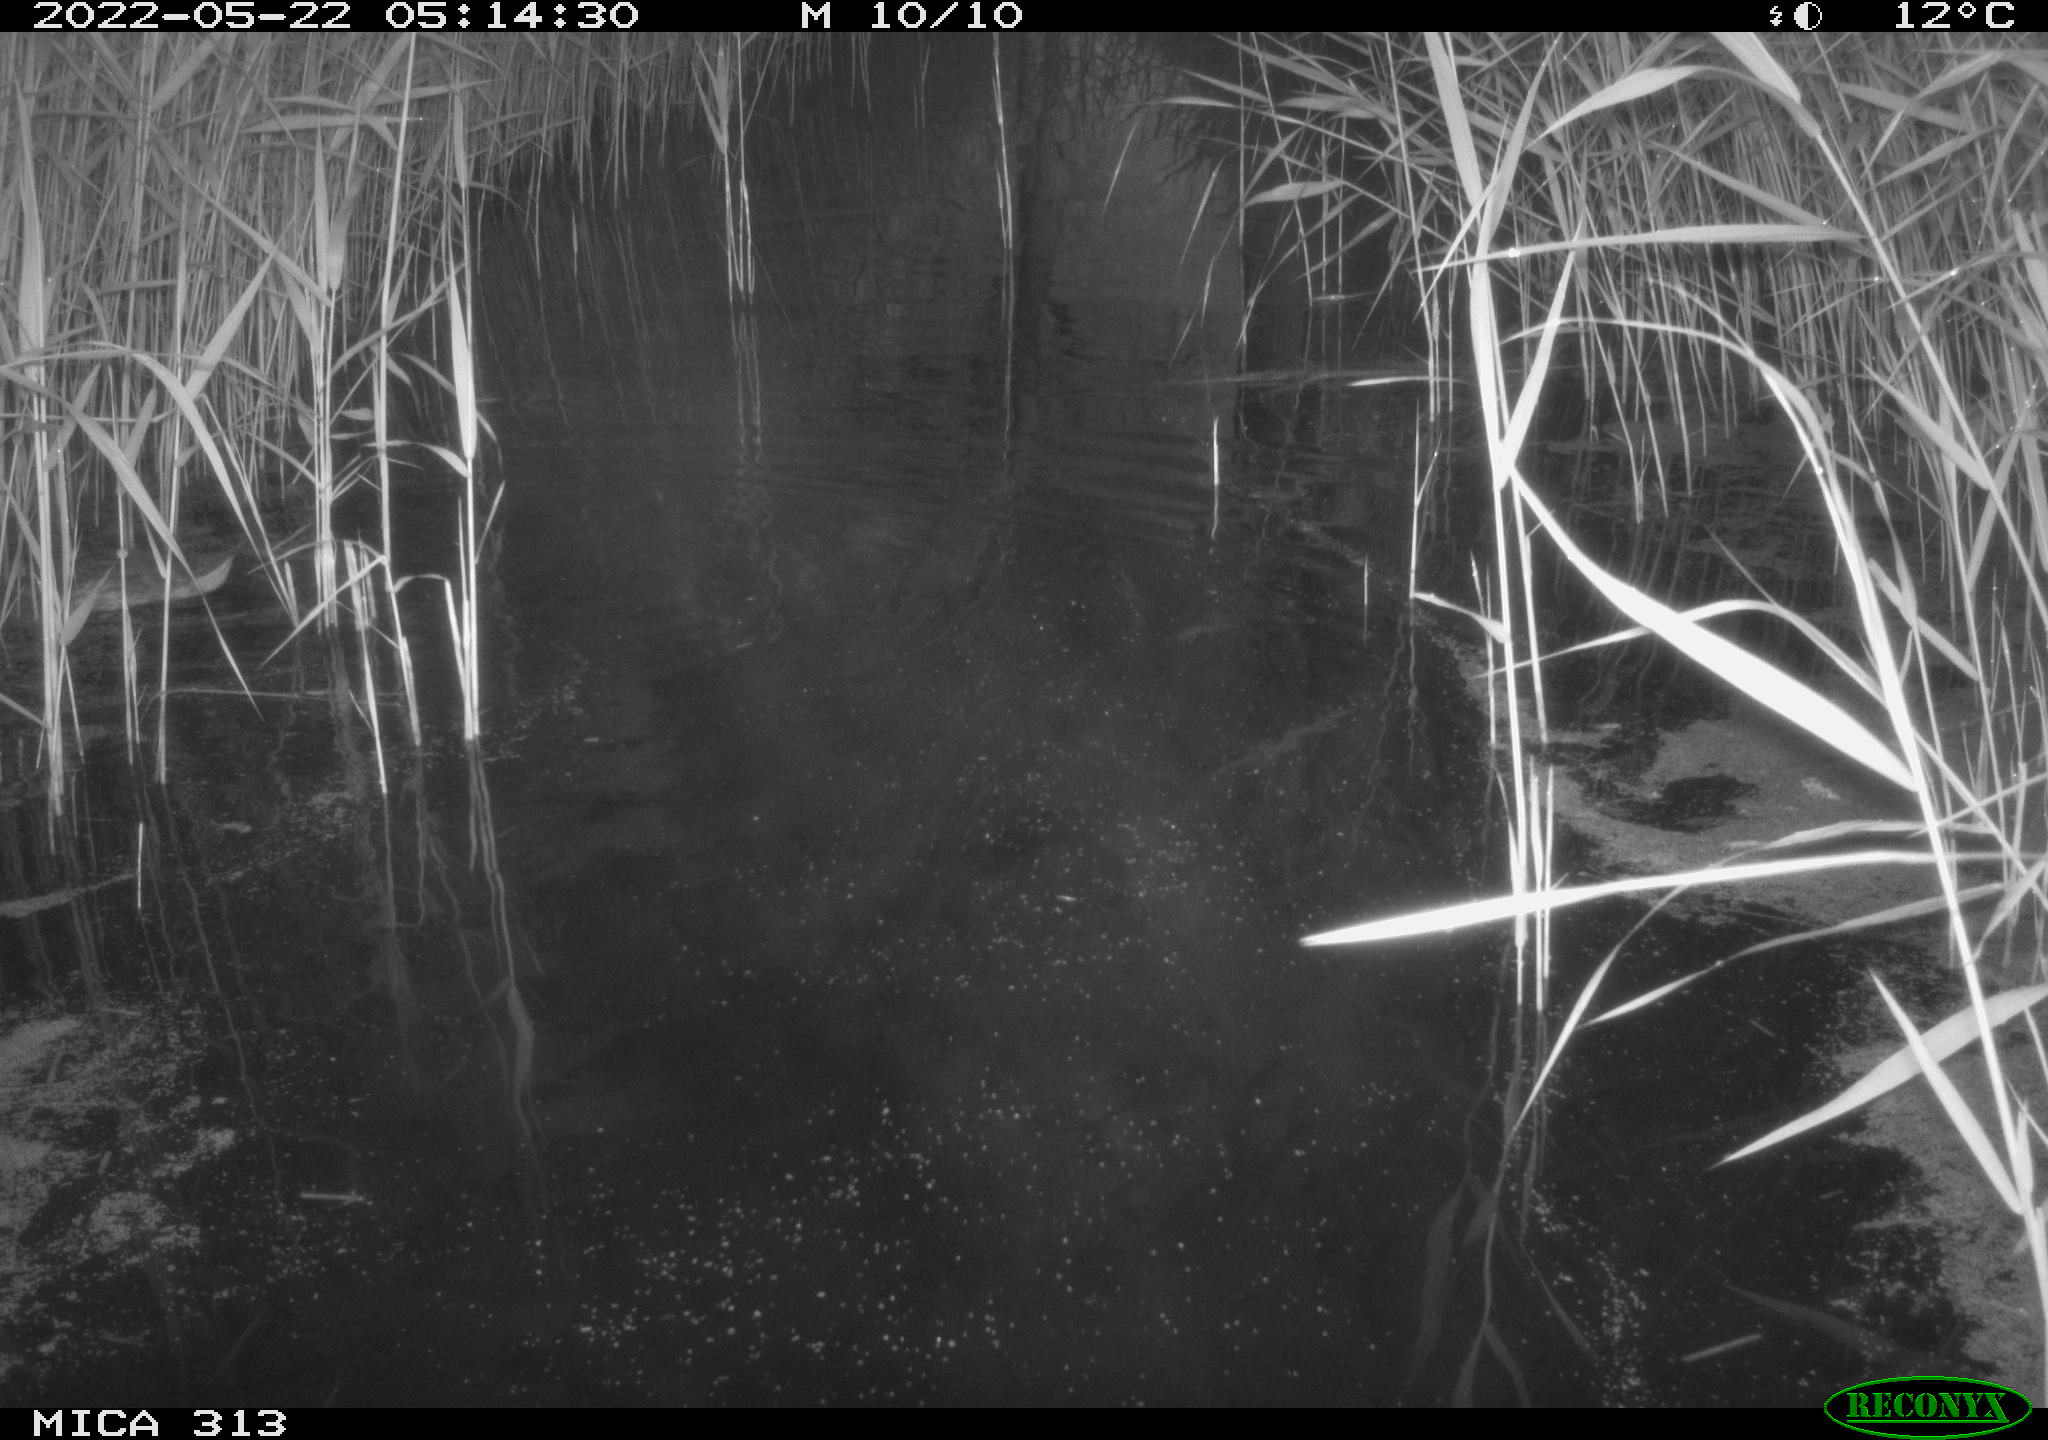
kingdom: Animalia
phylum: Chordata
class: Aves
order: Anseriformes
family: Anatidae
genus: Anas
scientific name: Anas platyrhynchos
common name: Mallard
